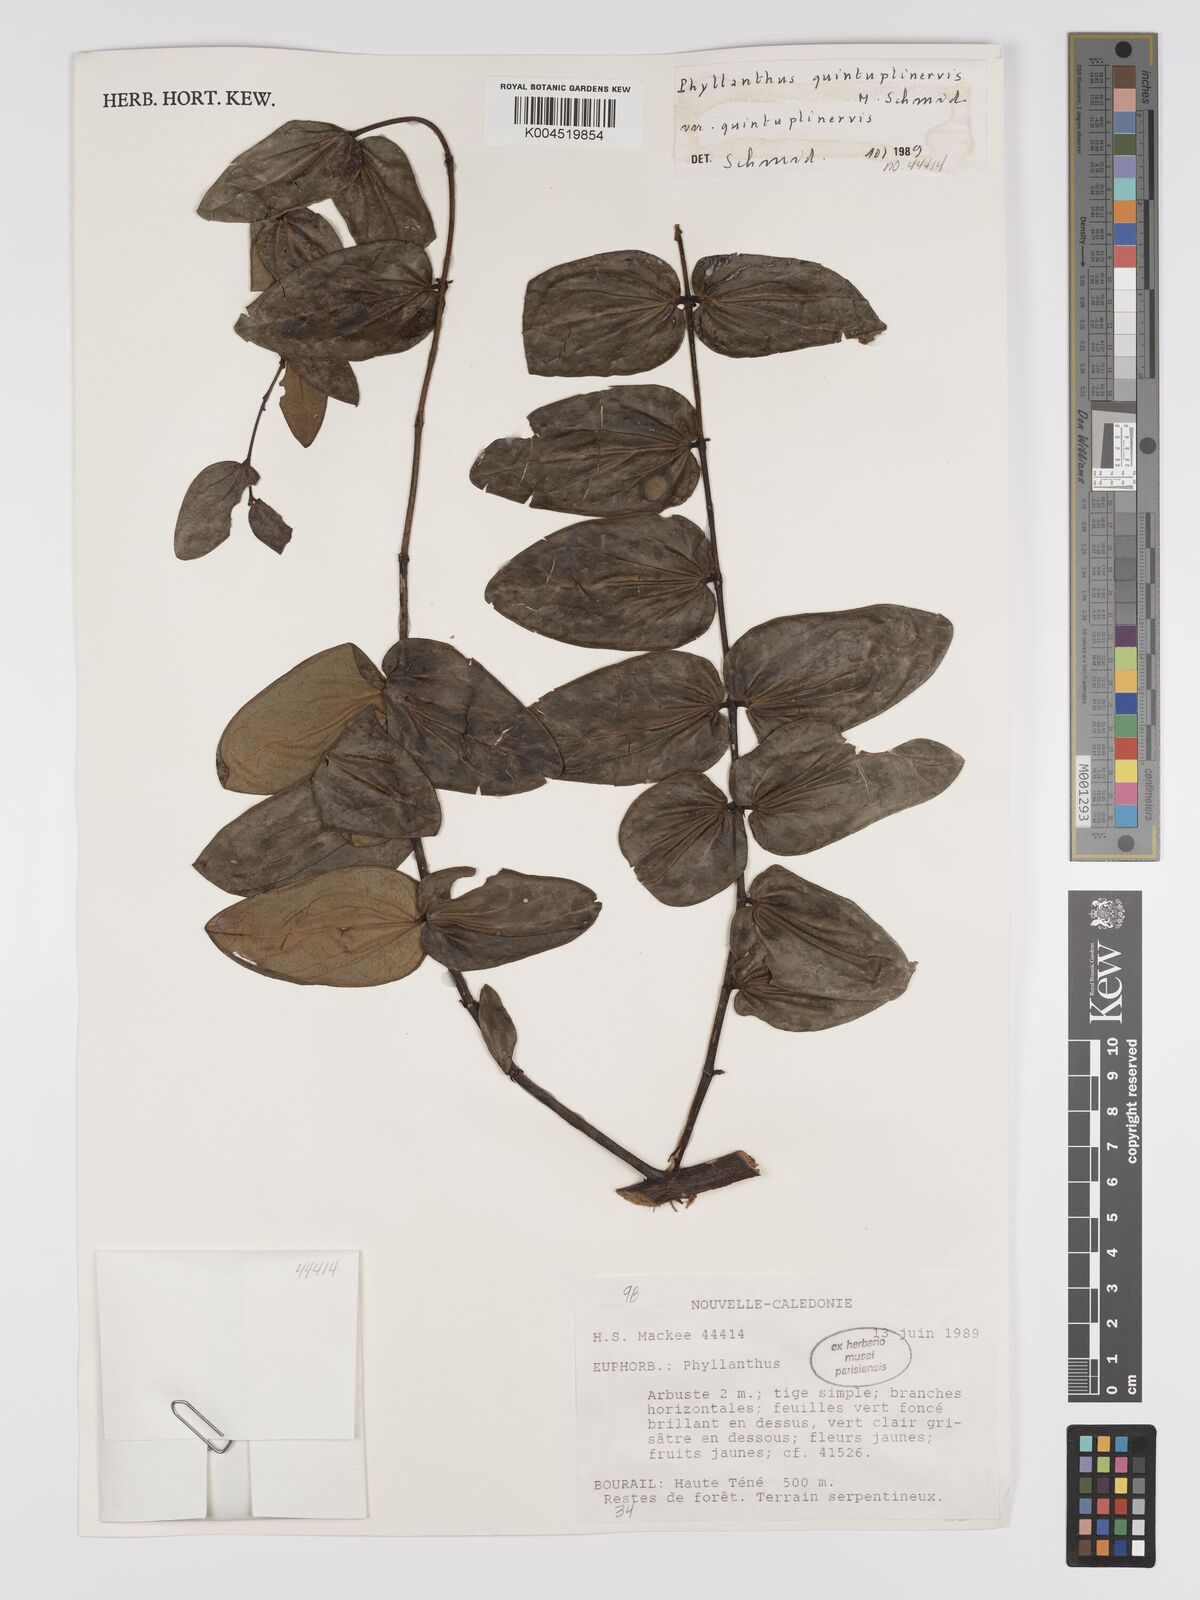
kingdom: Plantae
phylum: Tracheophyta
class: Magnoliopsida
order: Malpighiales
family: Phyllanthaceae
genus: Phyllanthus
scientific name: Phyllanthus quintuplinervis
